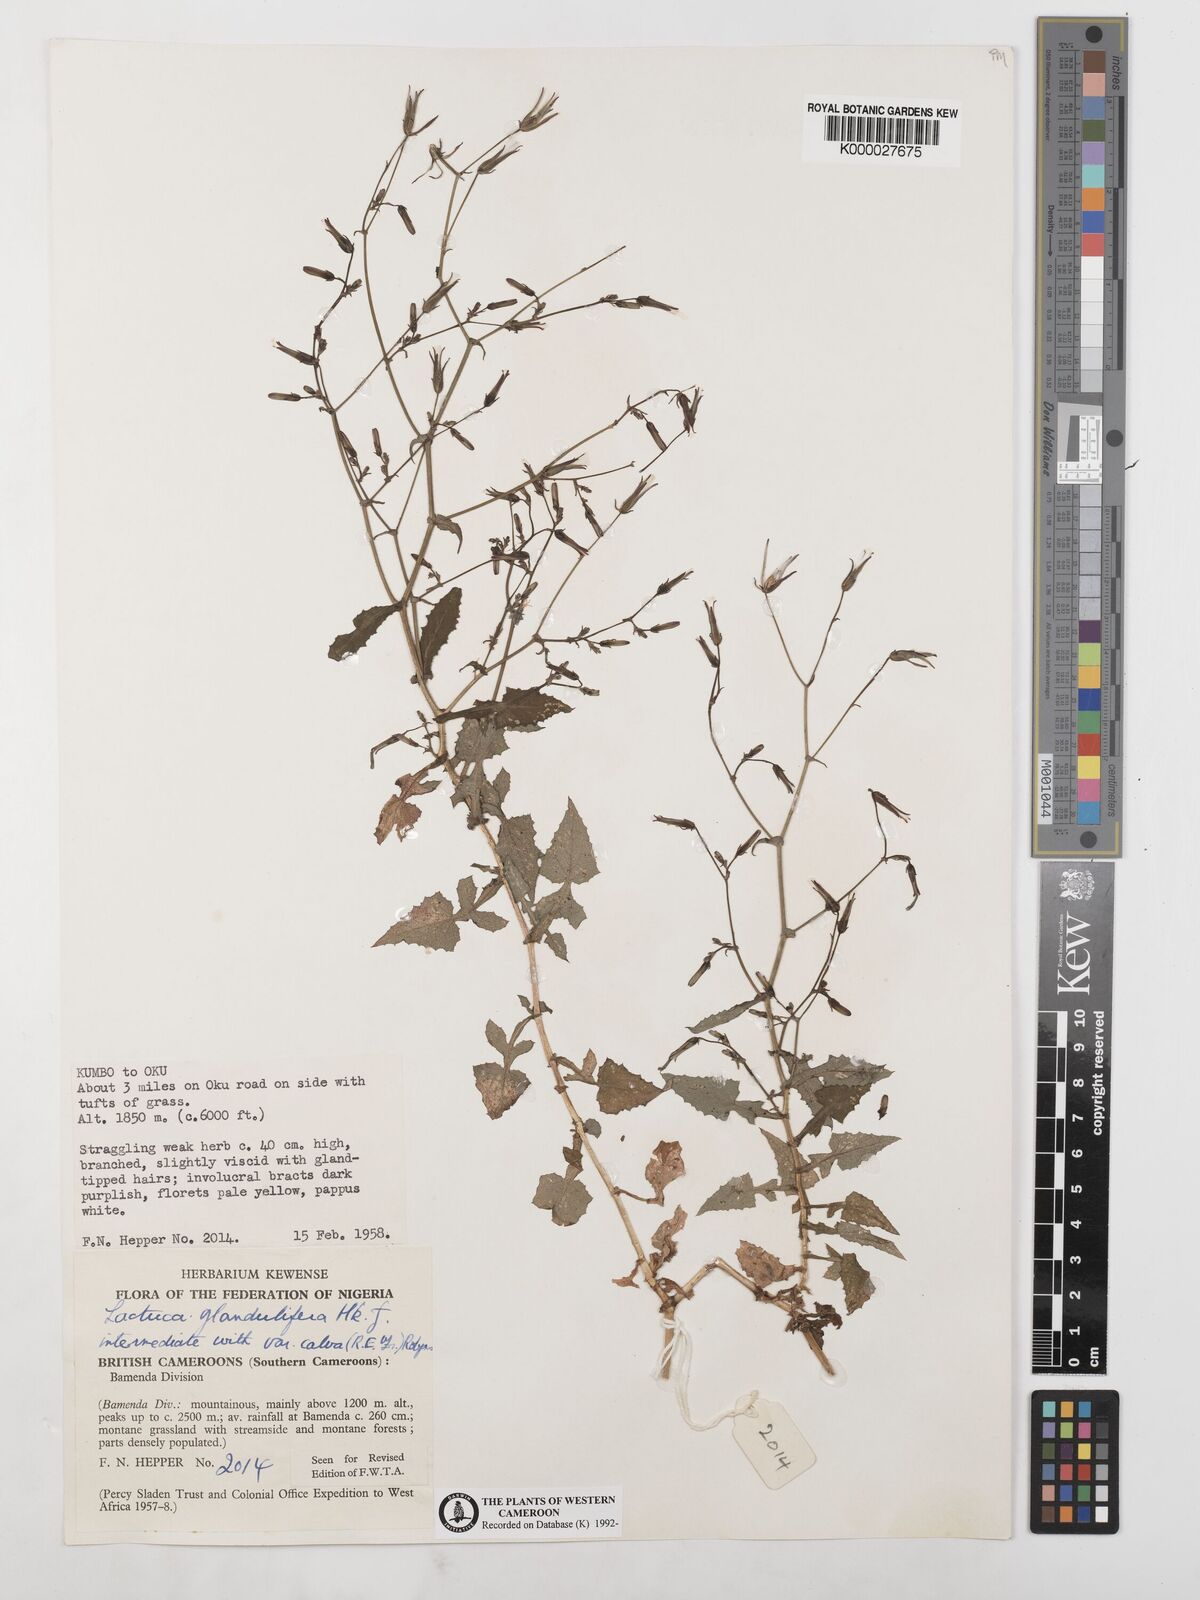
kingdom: Plantae
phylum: Tracheophyta
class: Magnoliopsida
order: Asterales
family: Asteraceae
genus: Lactuca
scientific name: Lactuca glandulifera
